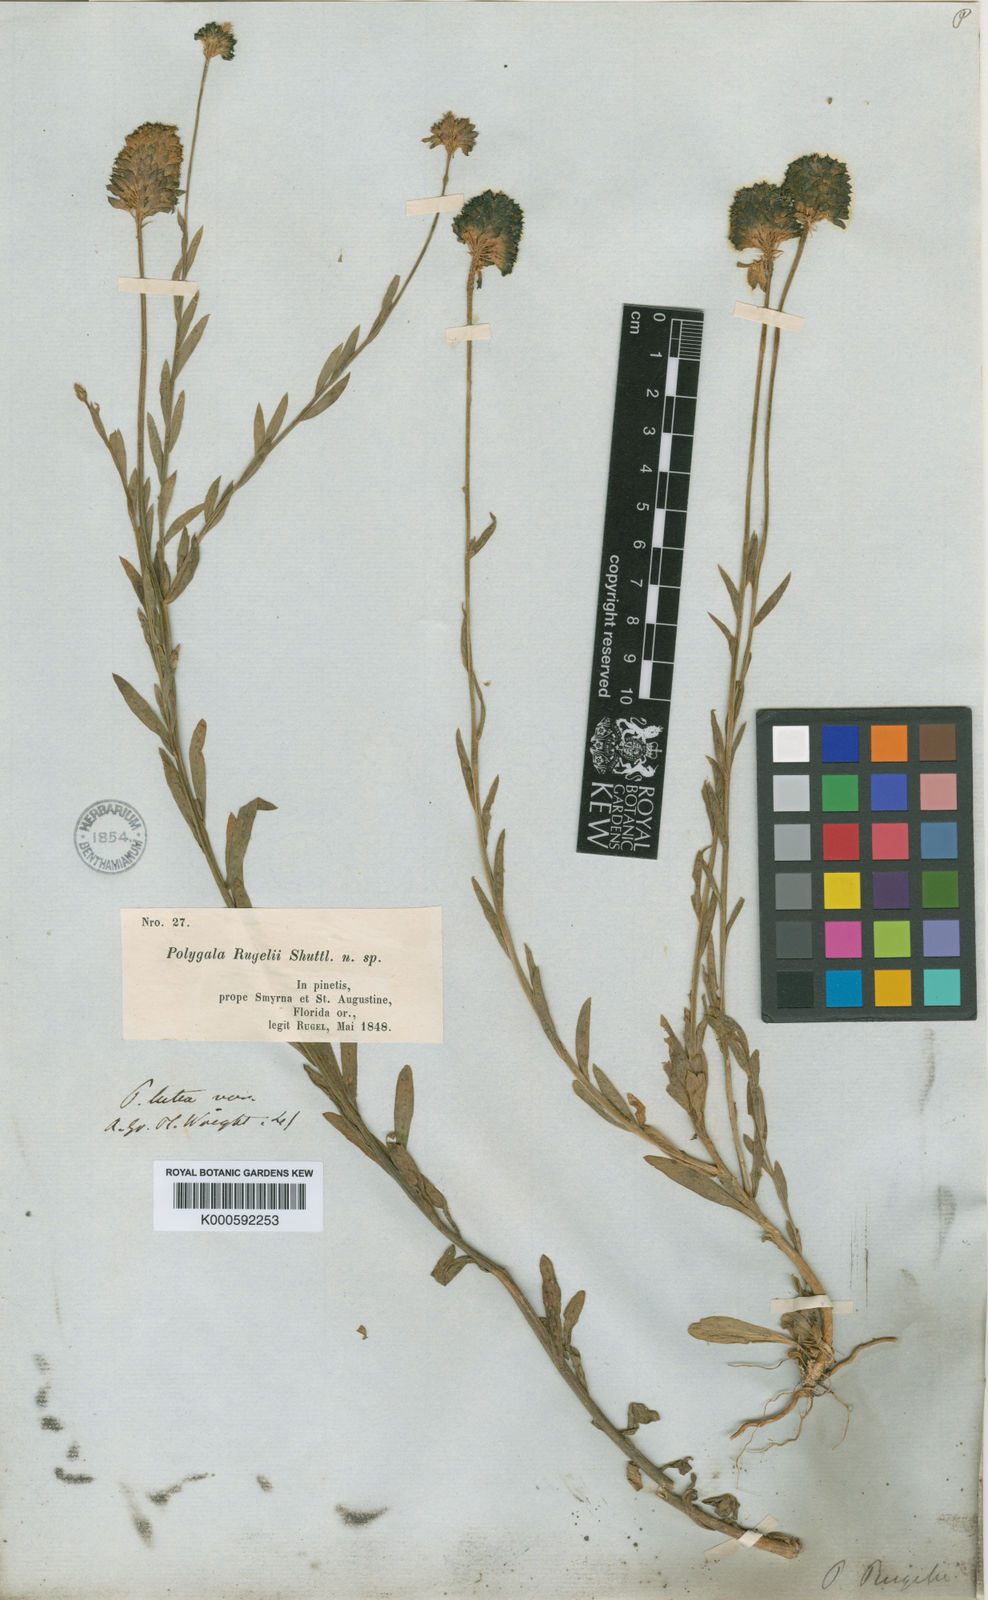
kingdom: Plantae
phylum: Tracheophyta
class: Magnoliopsida
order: Fabales
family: Polygalaceae
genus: Polygala
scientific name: Polygala
